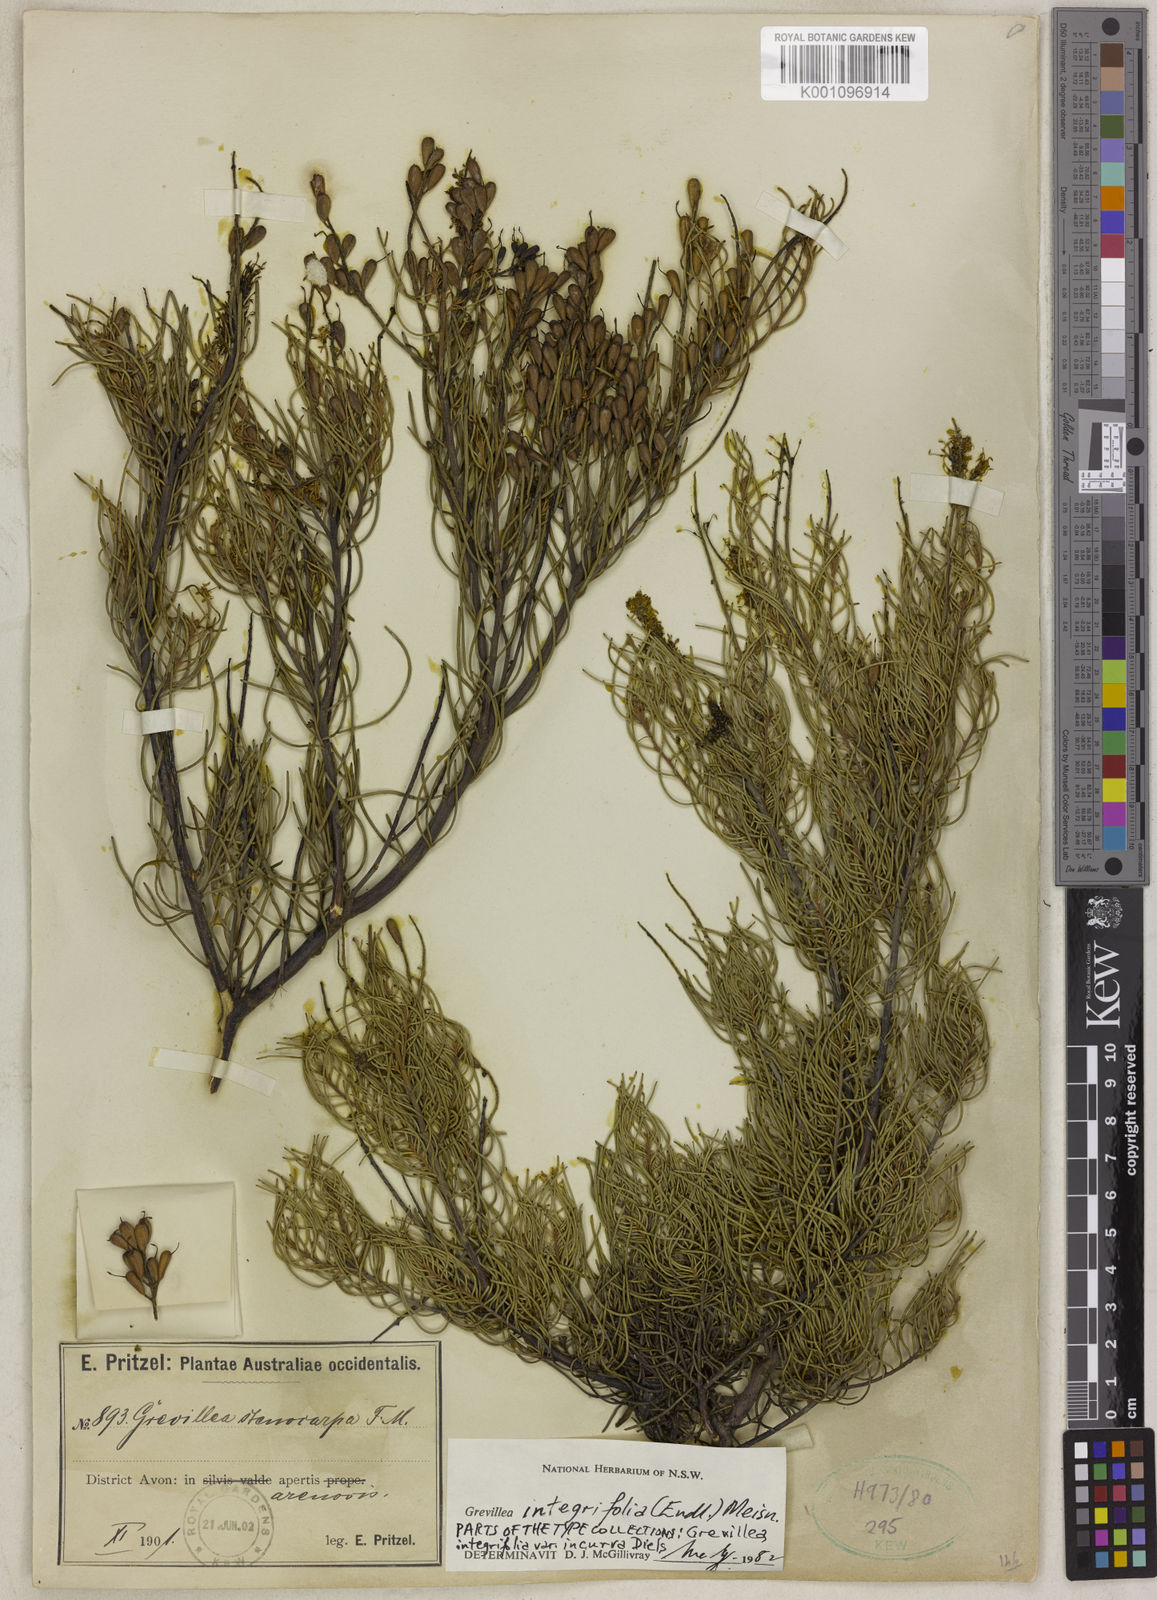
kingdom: Plantae
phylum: Tracheophyta
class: Magnoliopsida
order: Proteales
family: Proteaceae
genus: Grevillea
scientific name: Grevillea integrifolia
